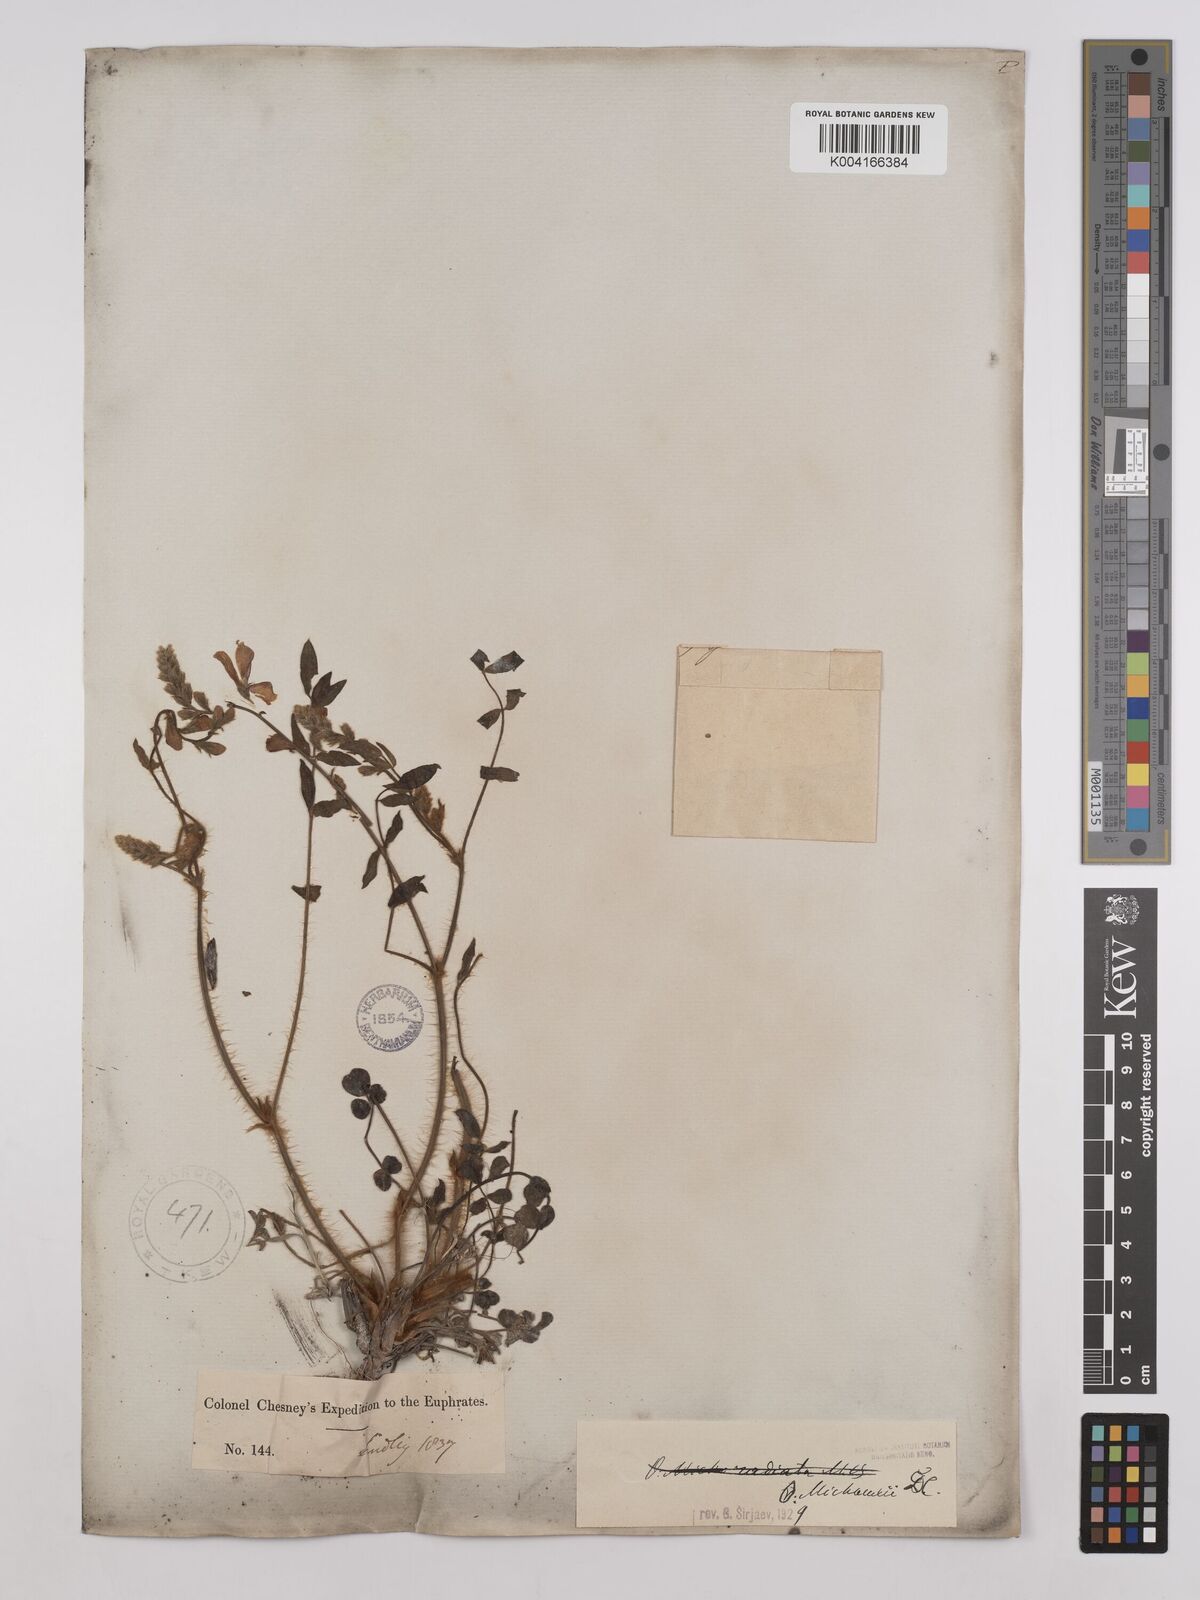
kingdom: Plantae
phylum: Tracheophyta
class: Magnoliopsida
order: Fabales
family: Fabaceae
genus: Onobrychis
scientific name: Onobrychis michauxii
